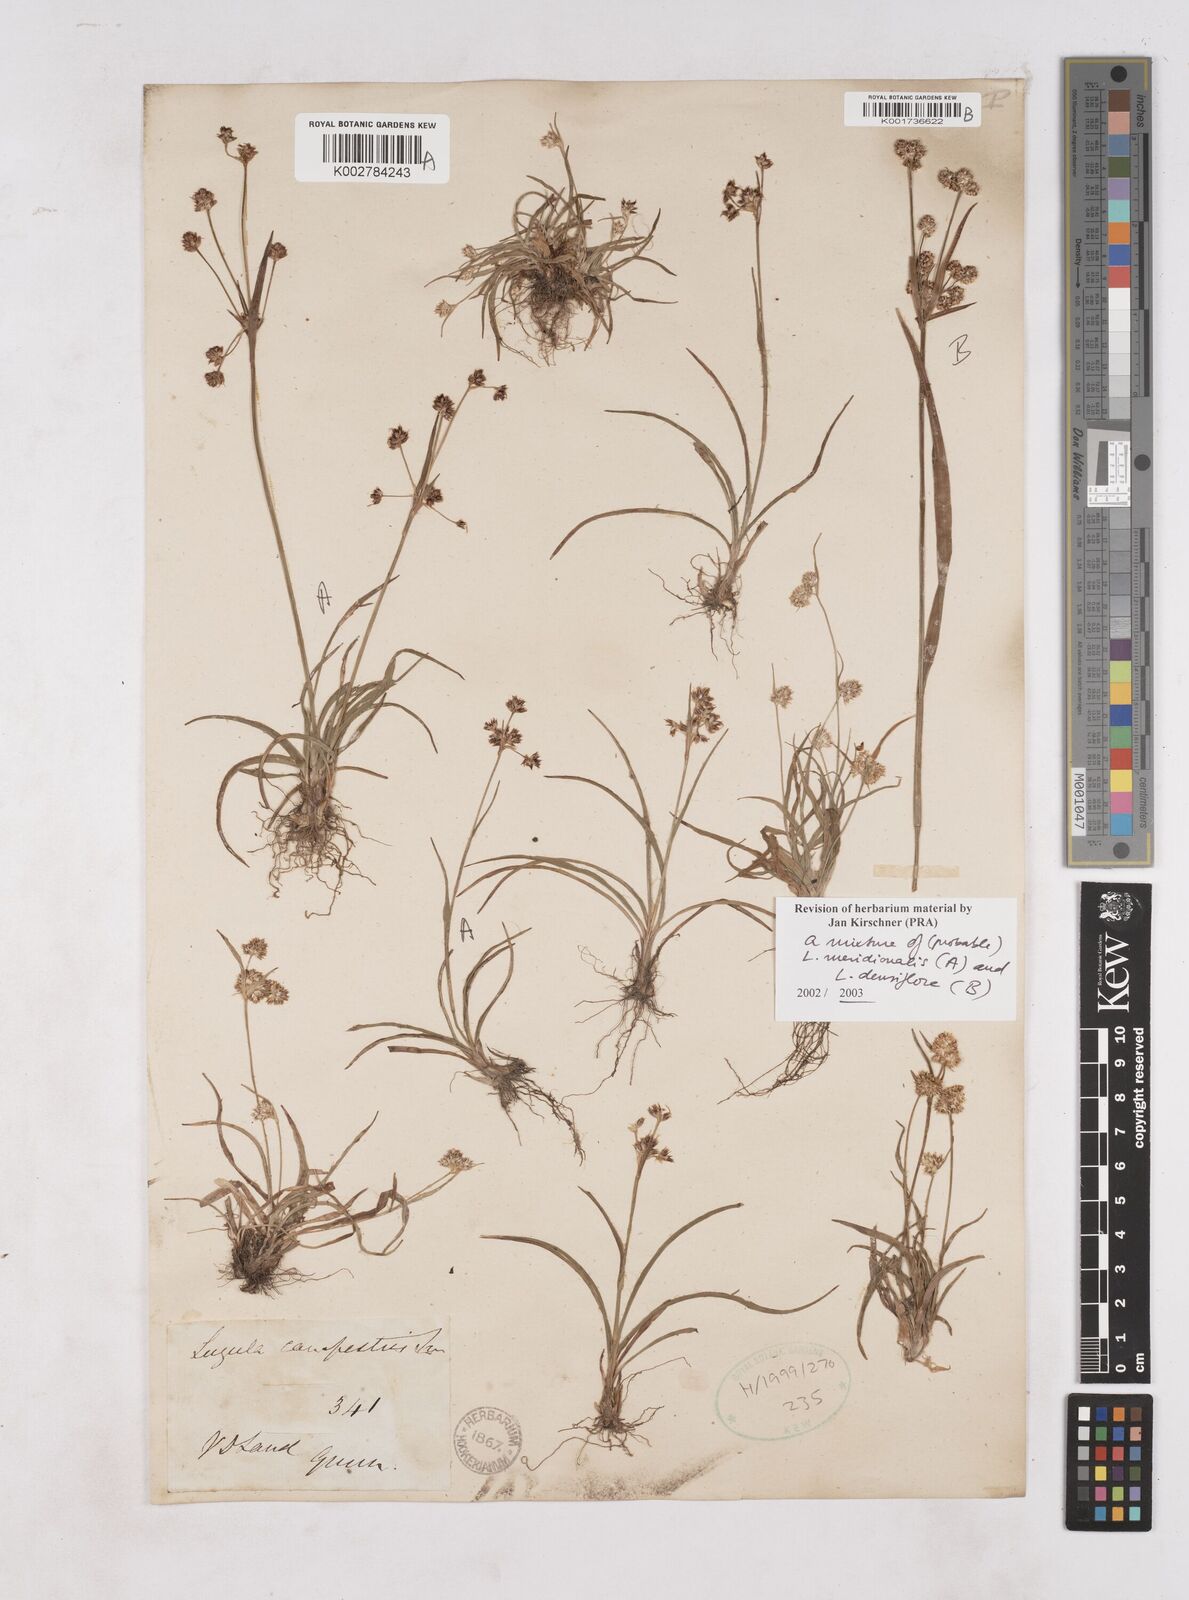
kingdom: Plantae
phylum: Tracheophyta
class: Liliopsida
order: Poales
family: Juncaceae
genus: Luzula
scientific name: Luzula densiflora
